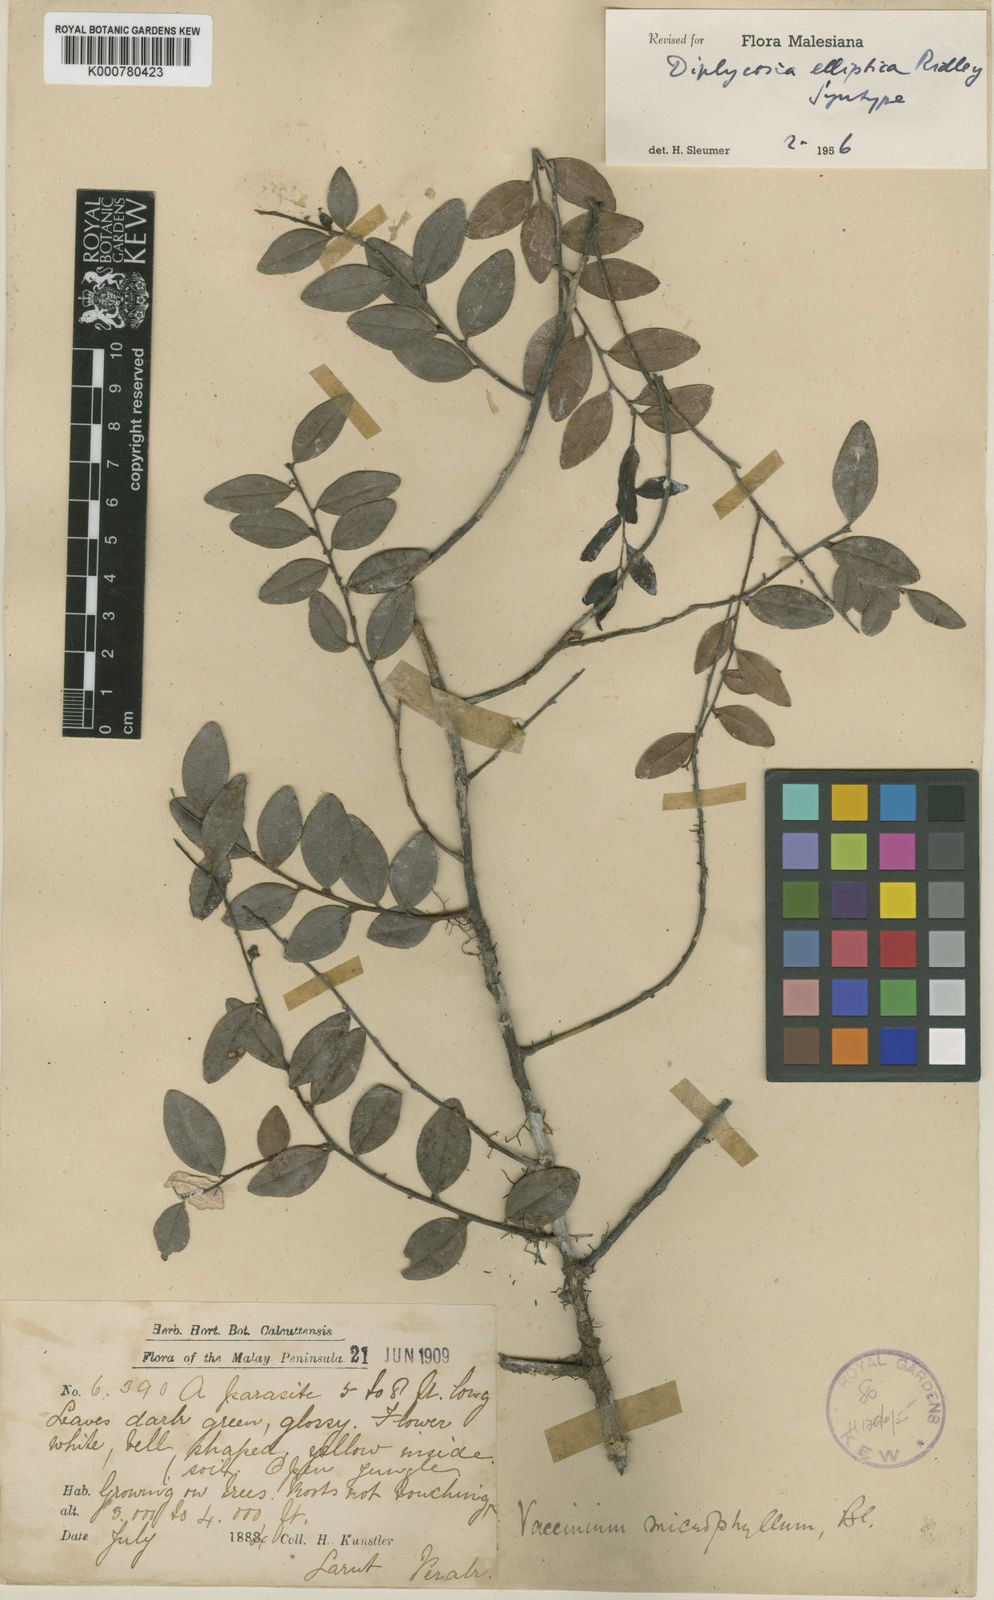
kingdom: Plantae
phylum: Tracheophyta
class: Magnoliopsida
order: Ericales
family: Ericaceae
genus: Gaultheria
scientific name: Gaultheria kingii
